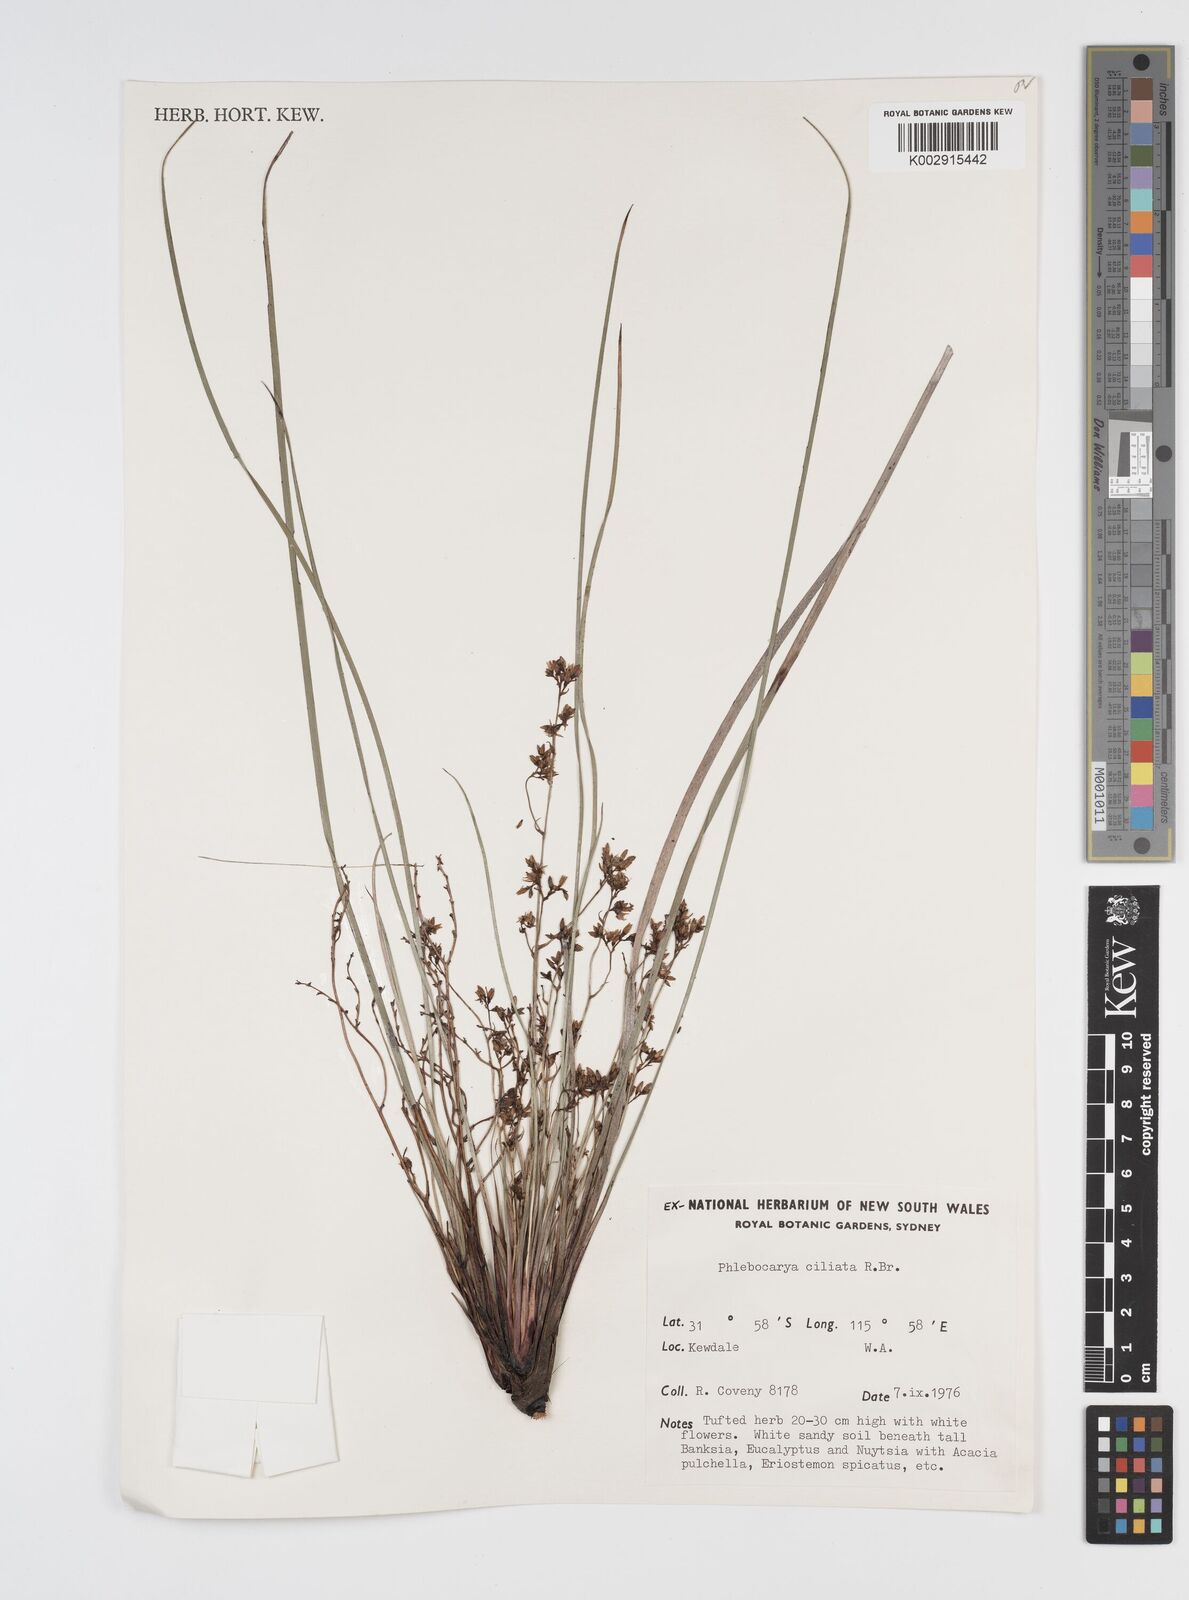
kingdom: Plantae
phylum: Tracheophyta
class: Liliopsida
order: Commelinales
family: Haemodoraceae
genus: Phlebocarya
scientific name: Phlebocarya ciliata
